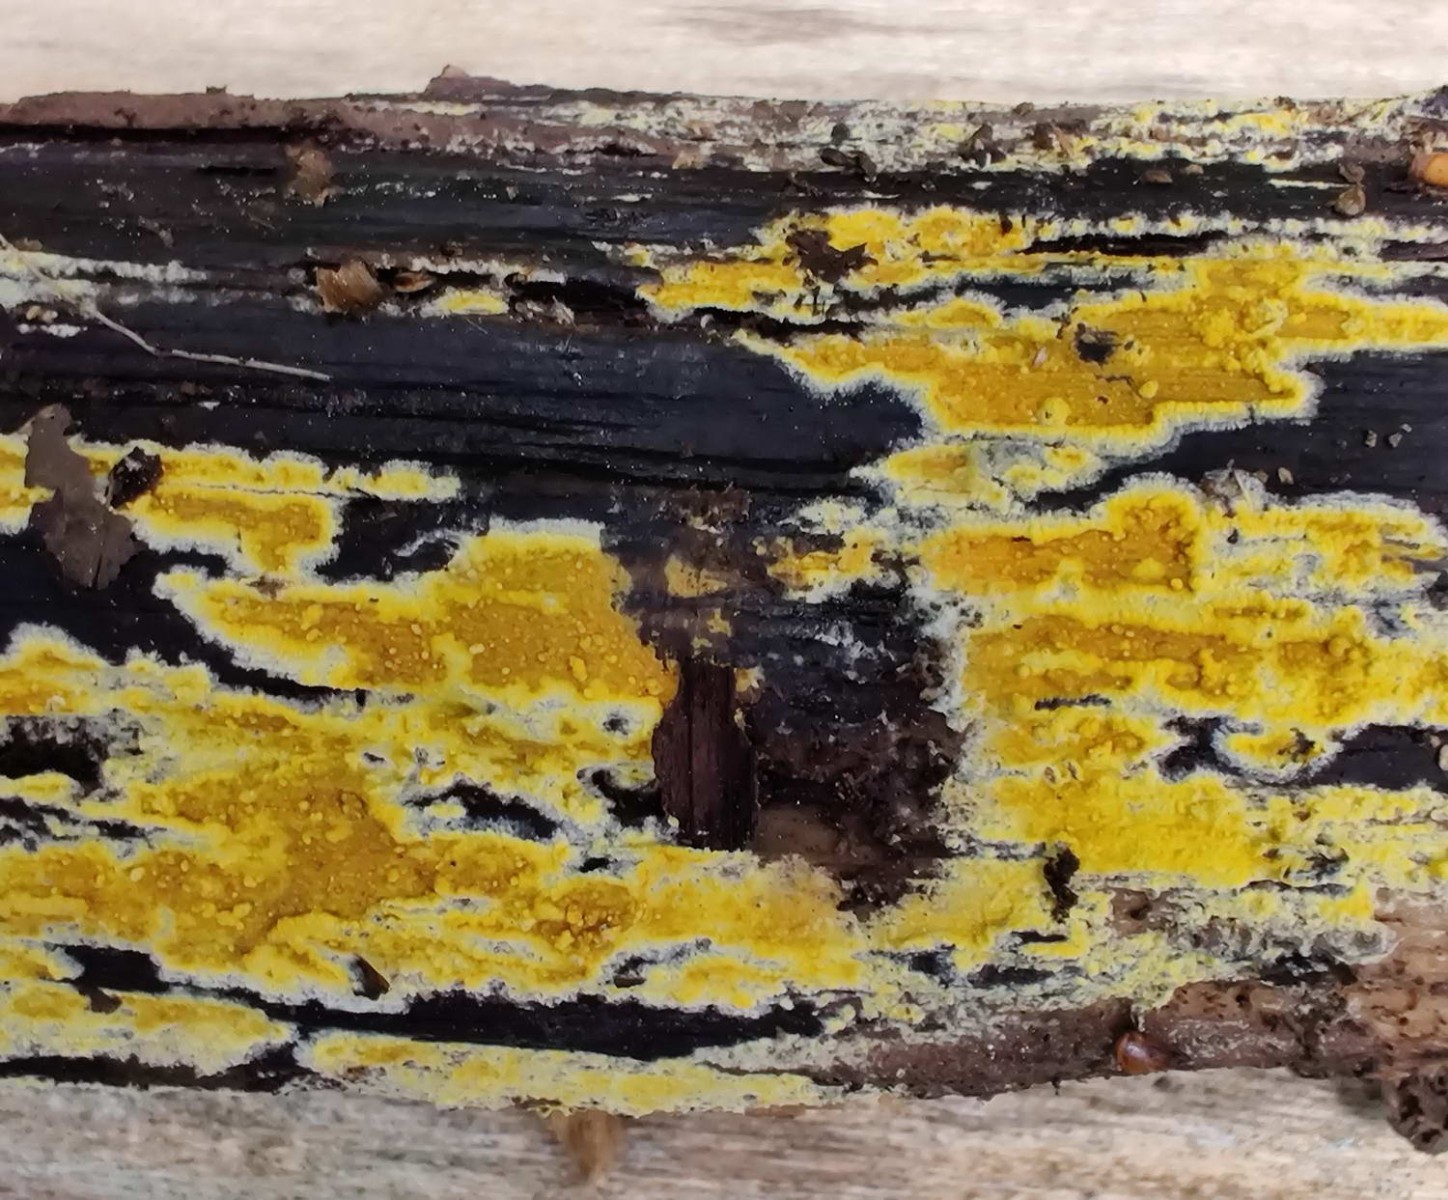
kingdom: Fungi
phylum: Basidiomycota
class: Agaricomycetes
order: Polyporales
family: Meruliaceae
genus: Phlebiodontia
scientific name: Phlebiodontia subochracea
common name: svovl-åresvamp
